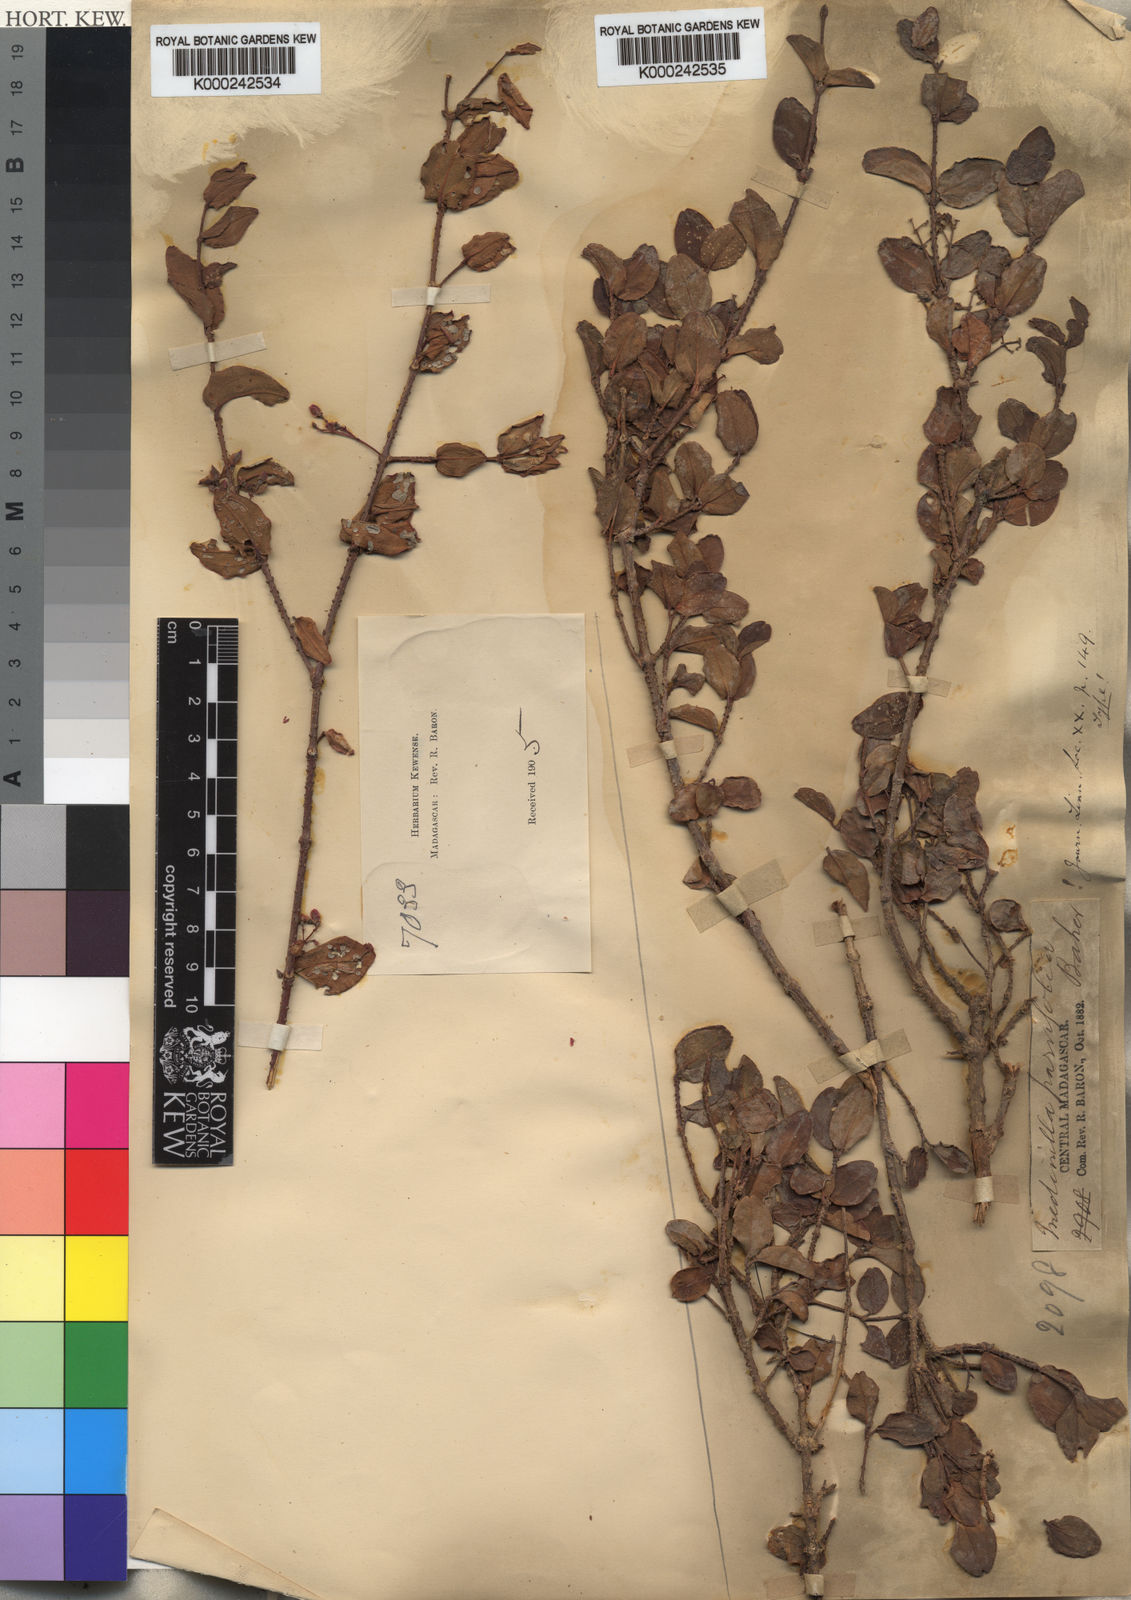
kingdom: Plantae
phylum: Tracheophyta
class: Magnoliopsida
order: Myrtales
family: Melastomataceae
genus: Medinilla
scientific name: Medinilla parvifolia
